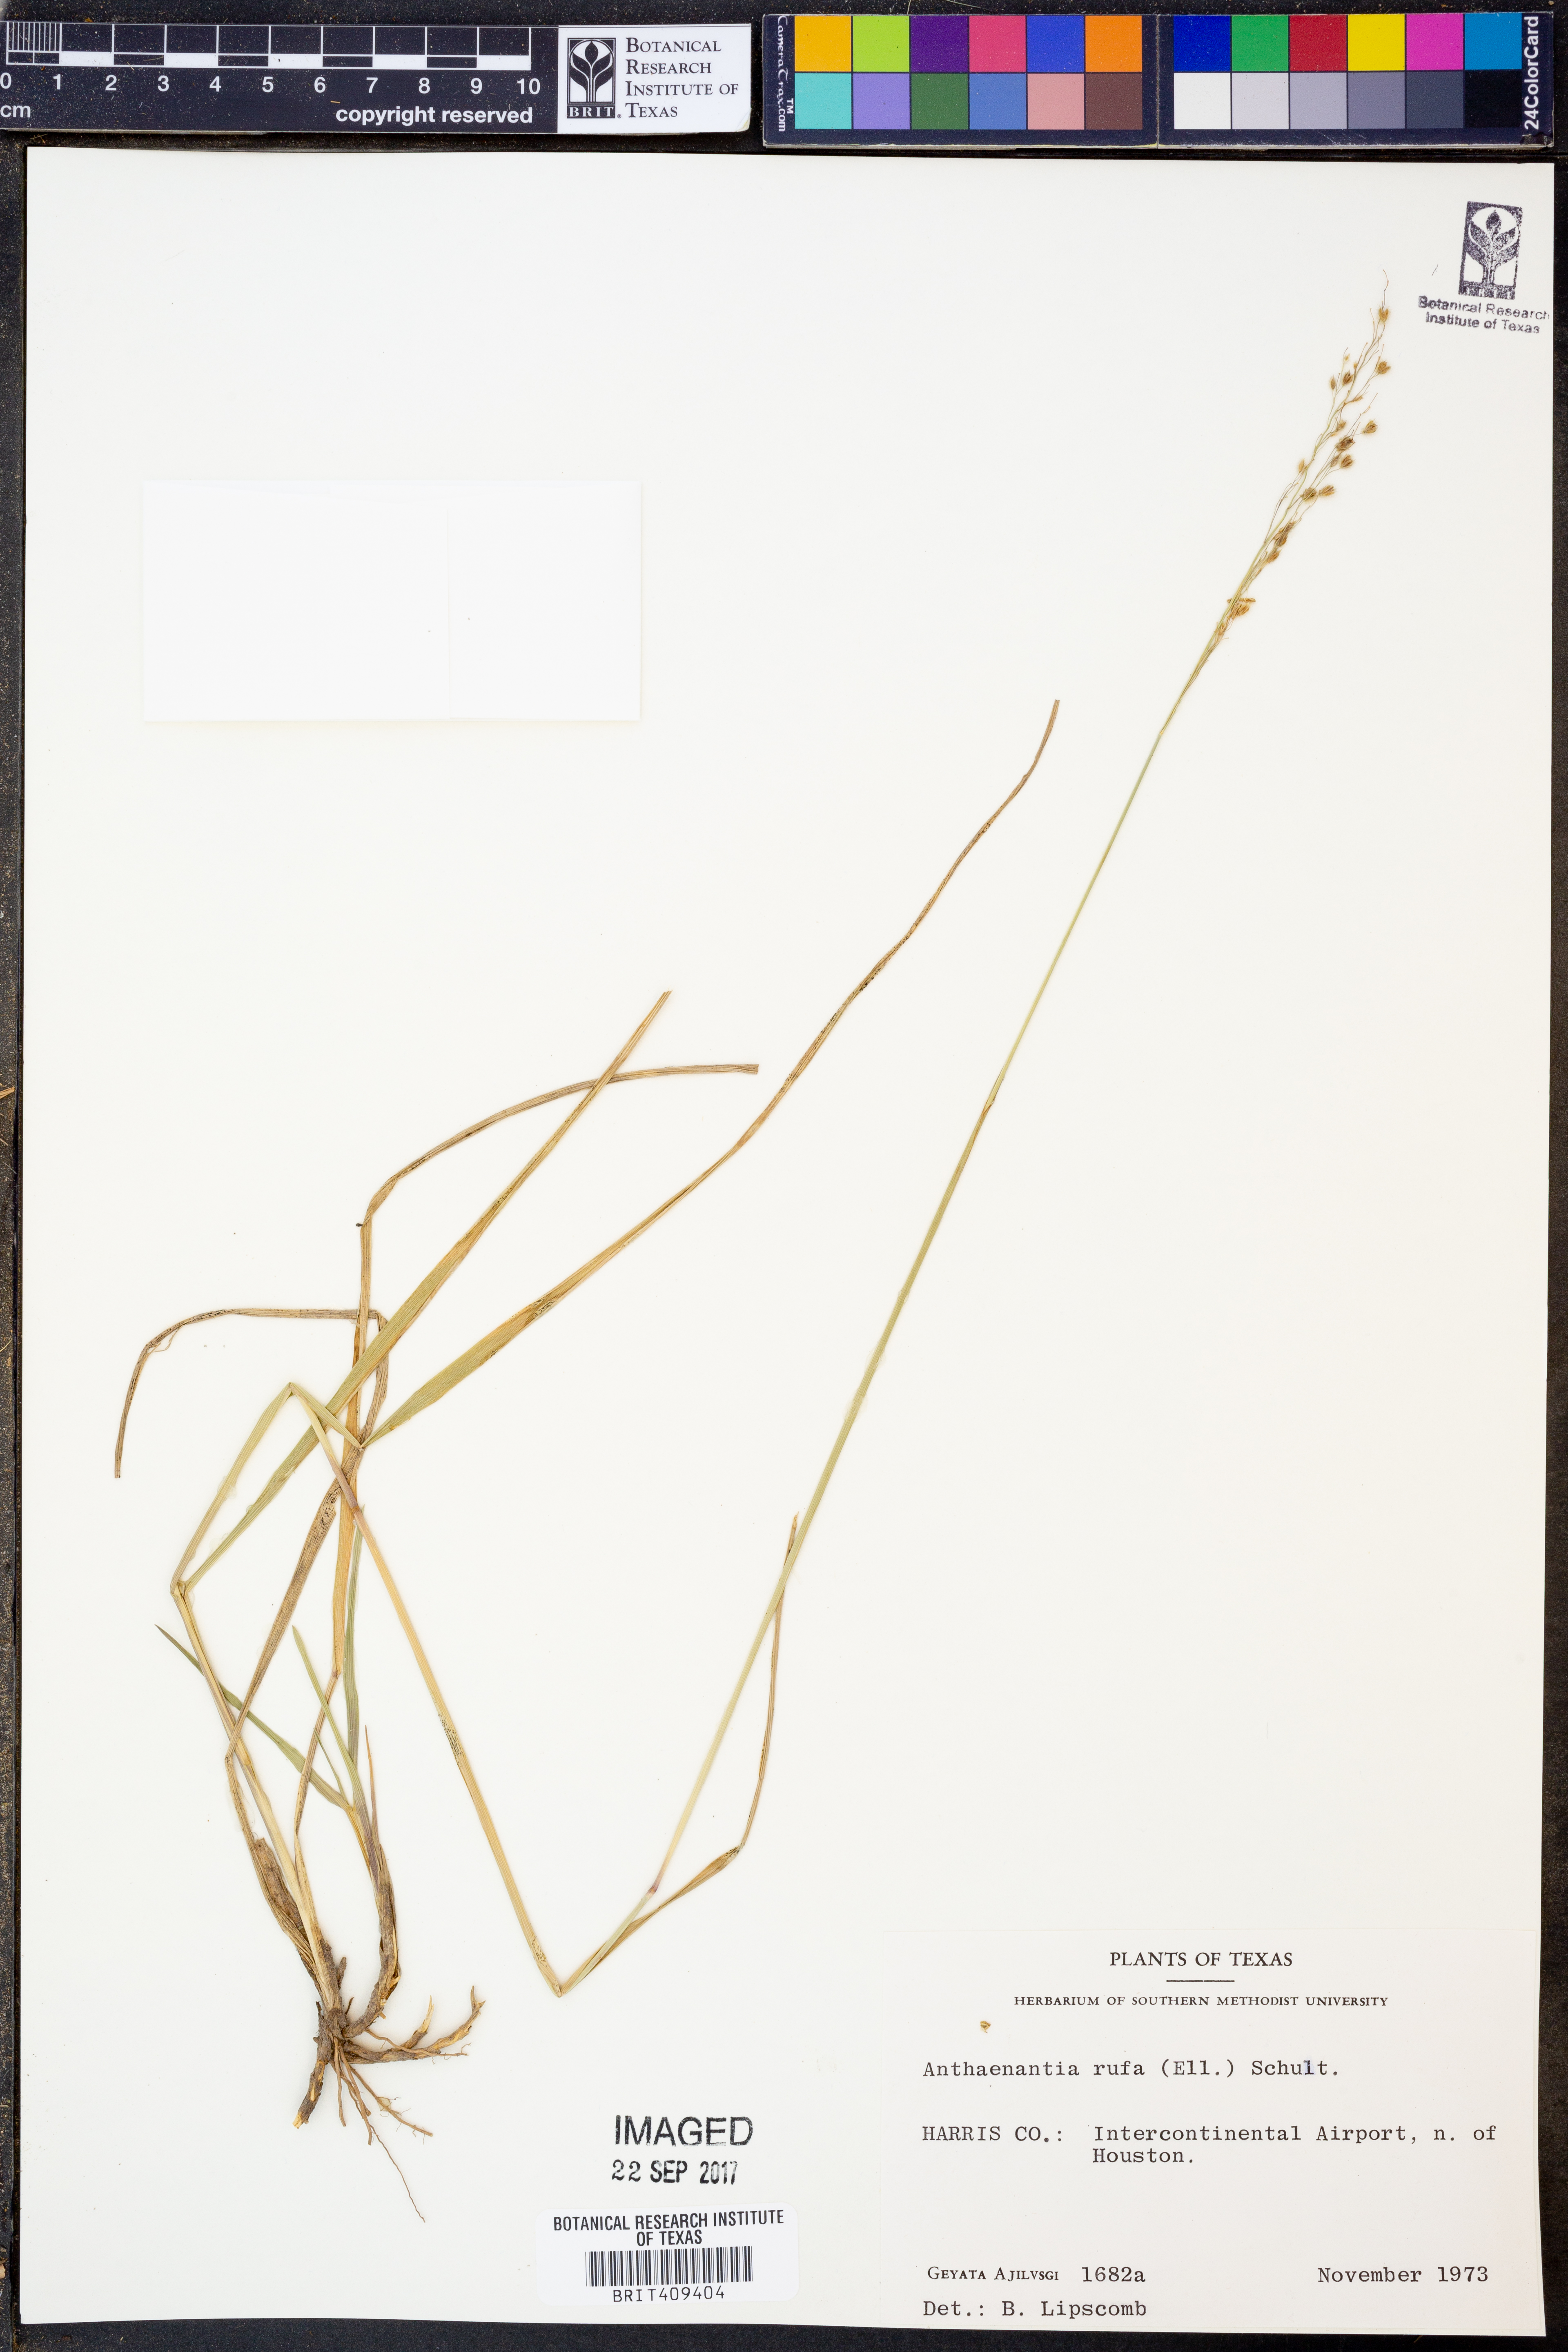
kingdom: Plantae
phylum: Tracheophyta
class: Liliopsida
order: Poales
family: Poaceae
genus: Anthenantia
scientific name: Anthenantia rufa
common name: Purple silkyscale
